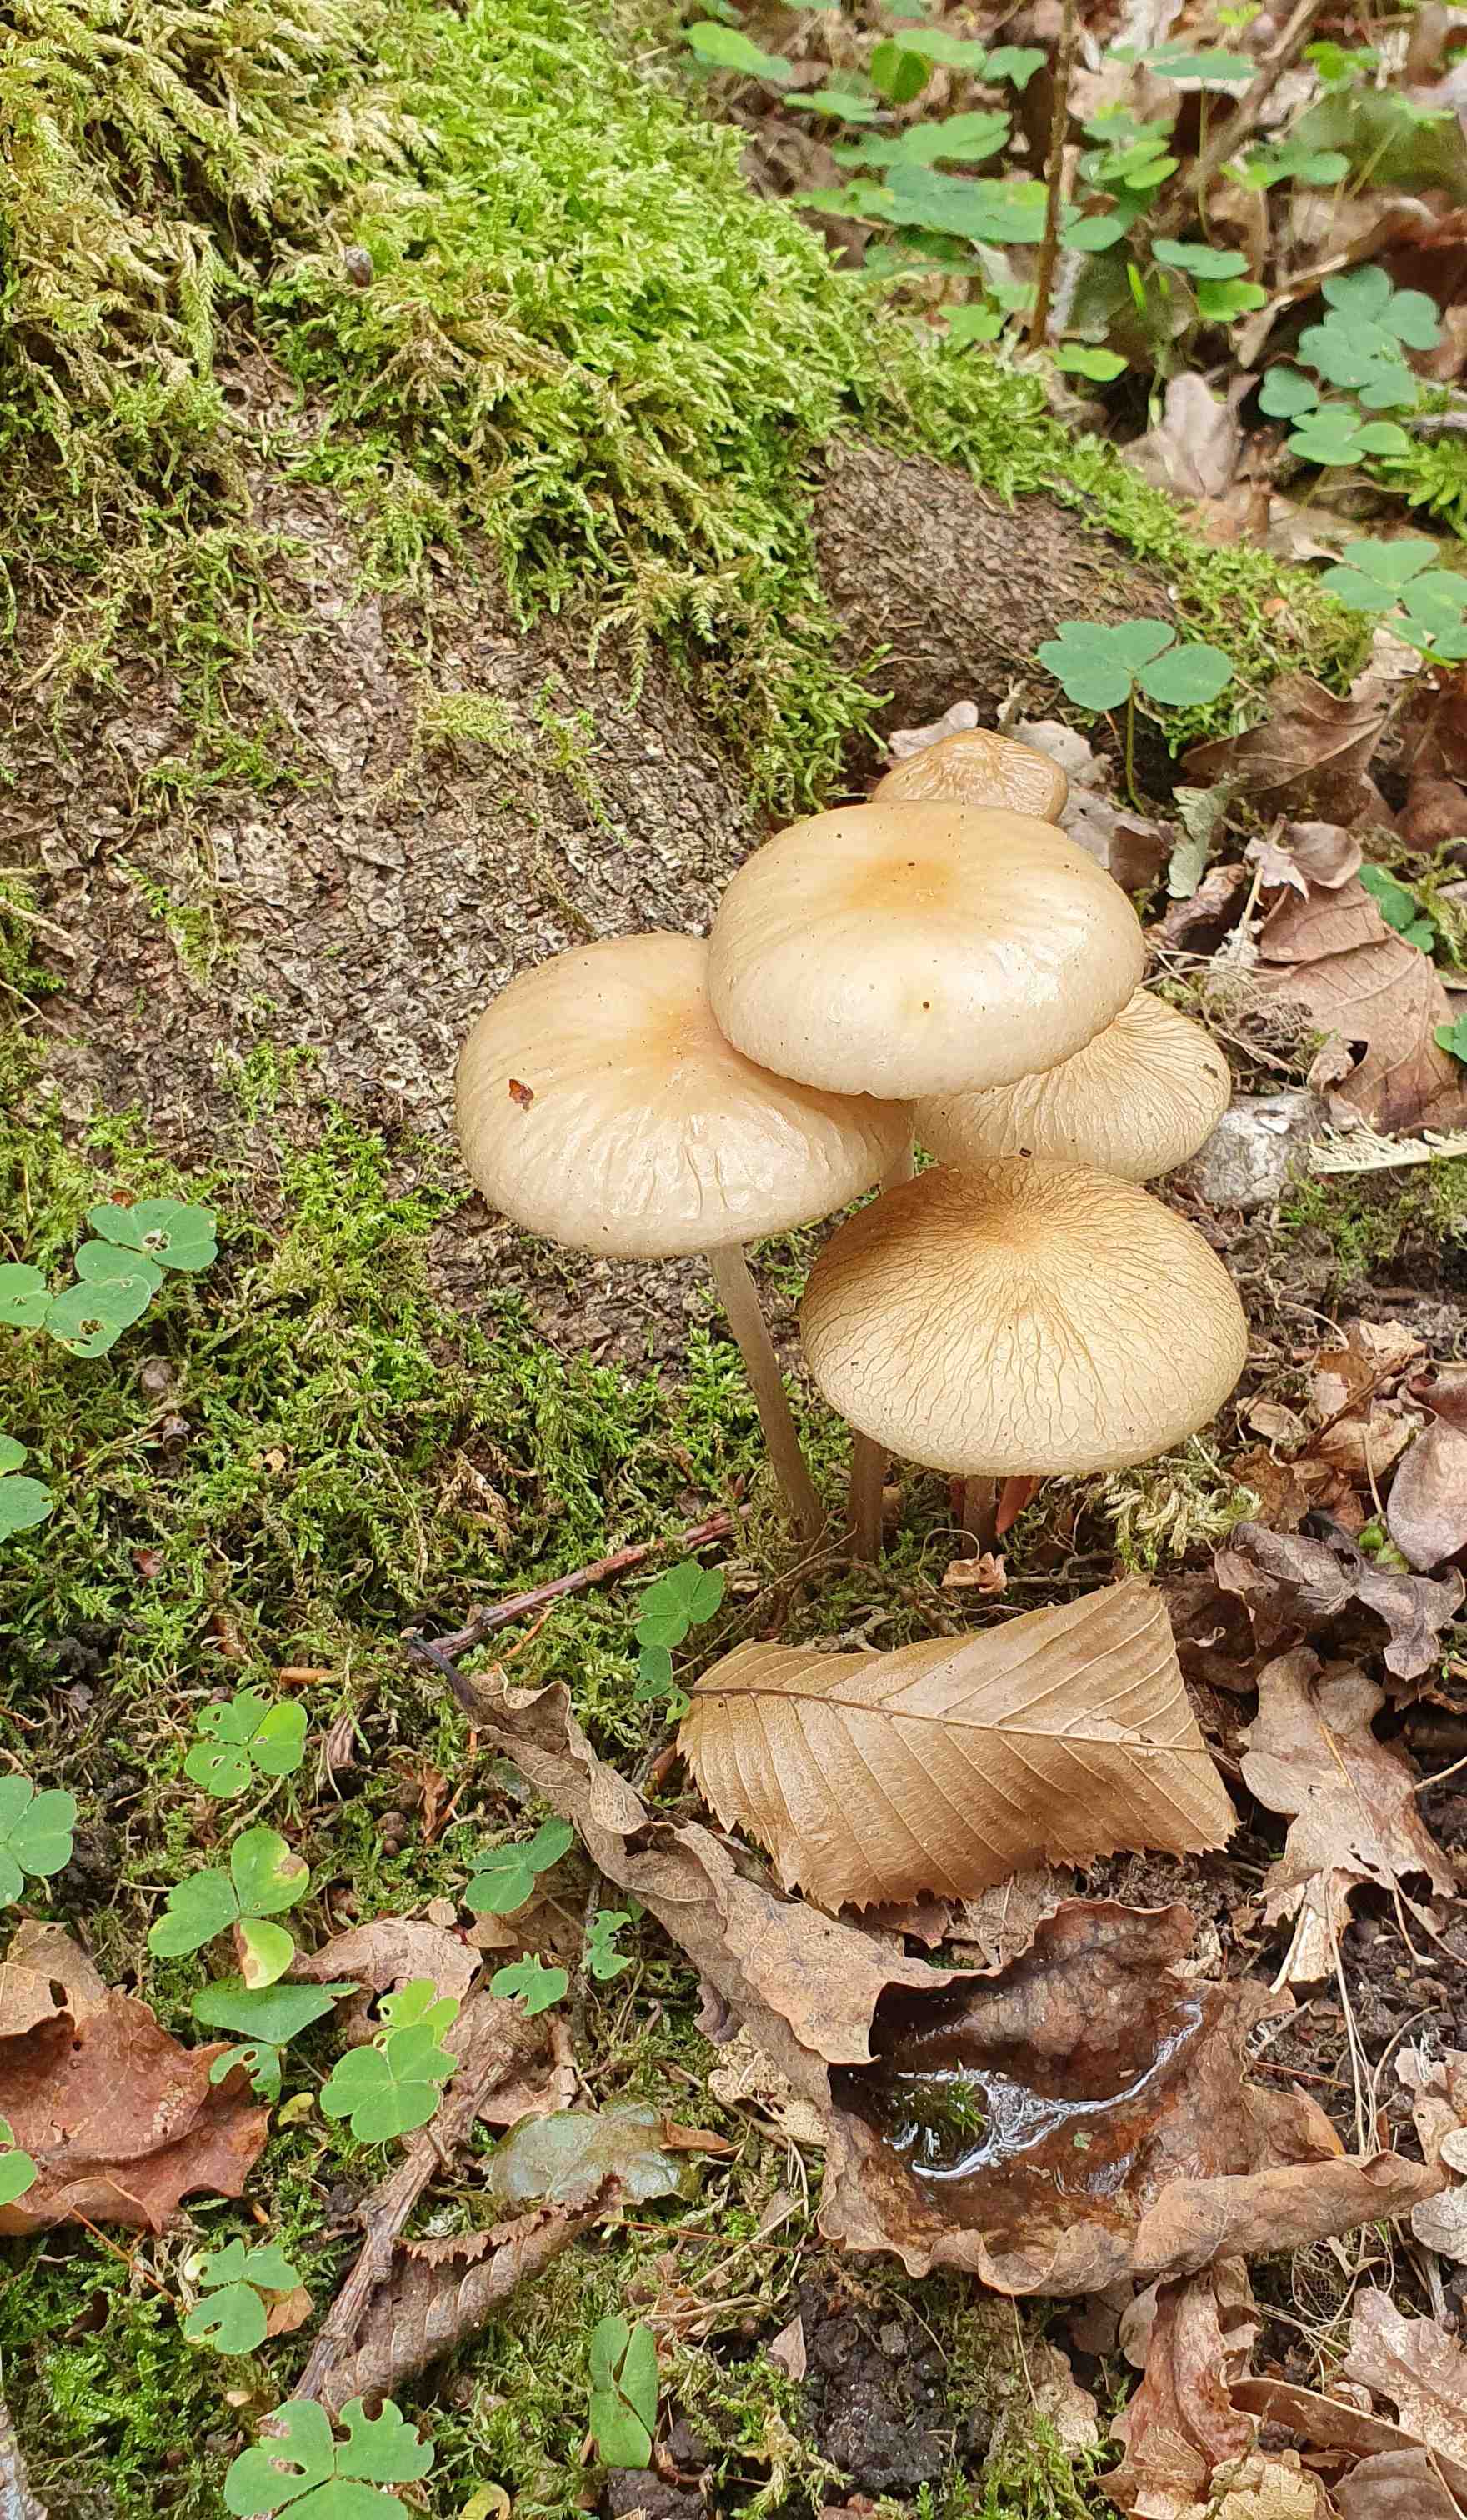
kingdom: Fungi
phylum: Basidiomycota
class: Agaricomycetes
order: Agaricales
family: Physalacriaceae
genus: Hymenopellis
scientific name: Hymenopellis radicata
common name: almindelig pælerodshat
